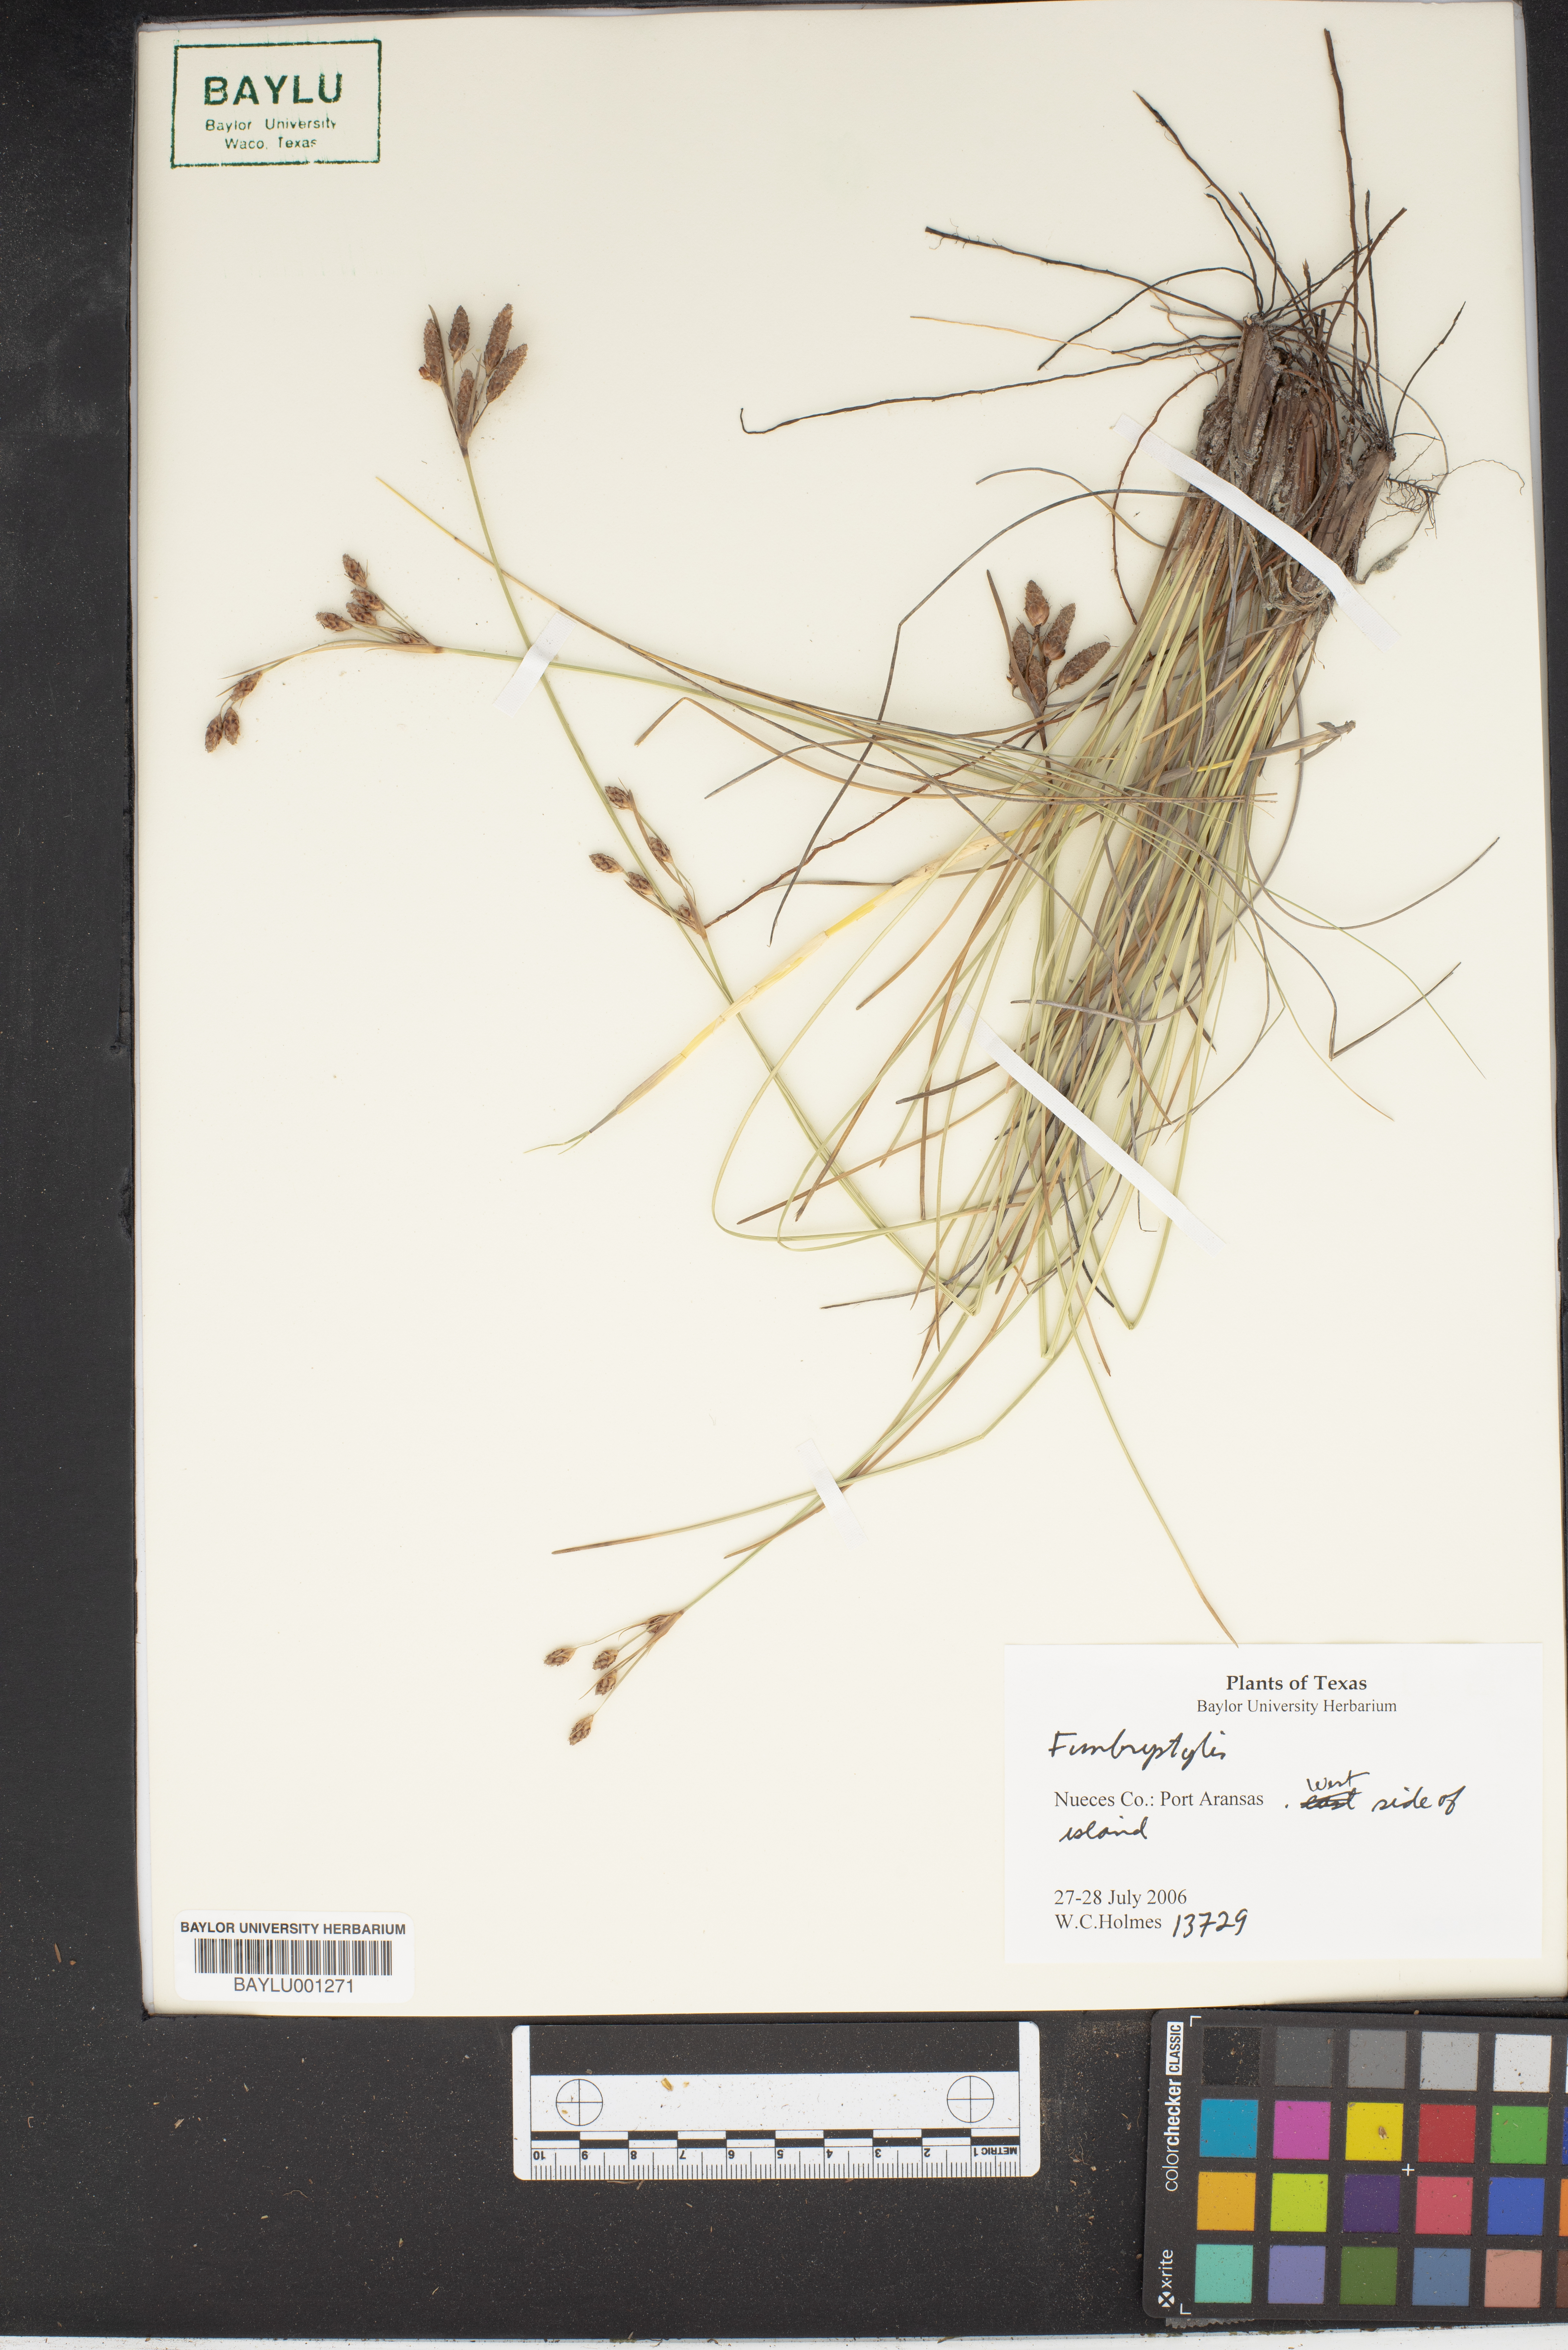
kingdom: Plantae
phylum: Tracheophyta
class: Liliopsida
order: Poales
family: Cyperaceae
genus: Fimbristylis
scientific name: Fimbristylis spadicea
